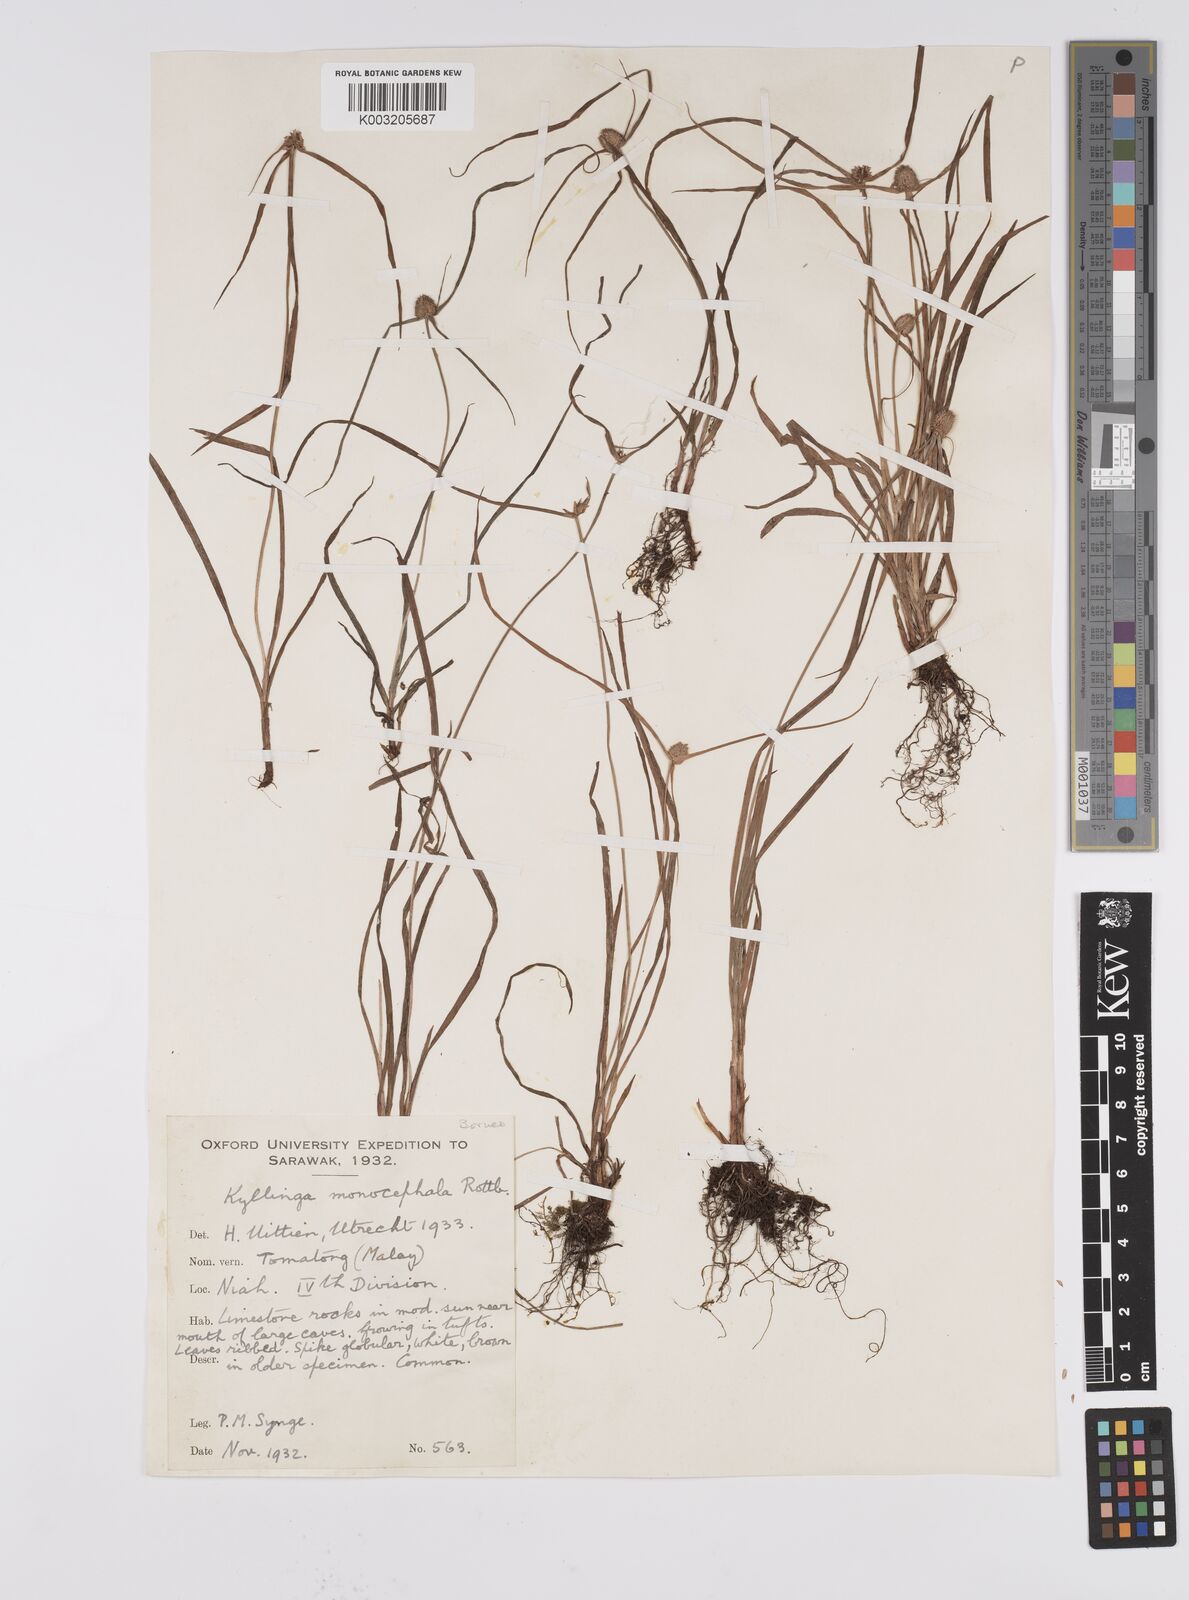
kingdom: Plantae
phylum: Tracheophyta
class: Liliopsida
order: Poales
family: Cyperaceae
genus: Cyperus
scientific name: Cyperus nemoralis
